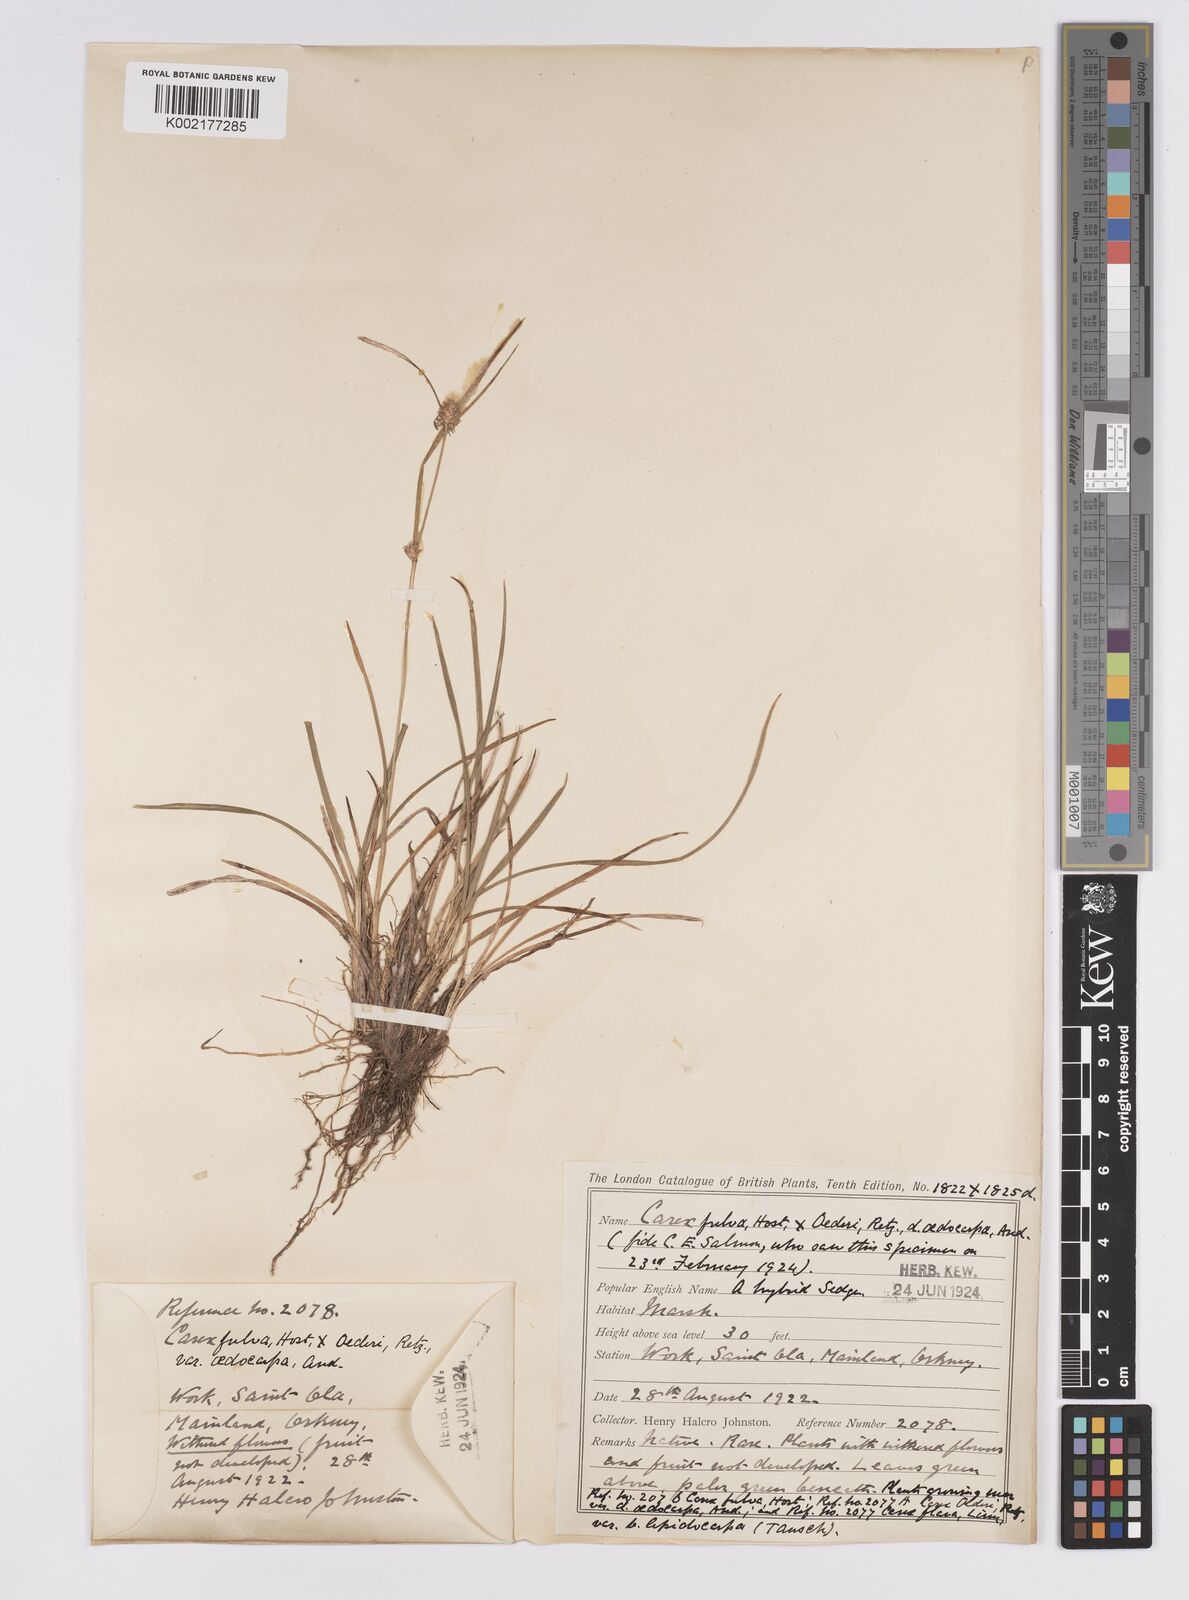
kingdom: Plantae
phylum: Tracheophyta
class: Liliopsida
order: Poales
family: Cyperaceae
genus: Carex
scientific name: Carex hostiana
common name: Tawny sedge
